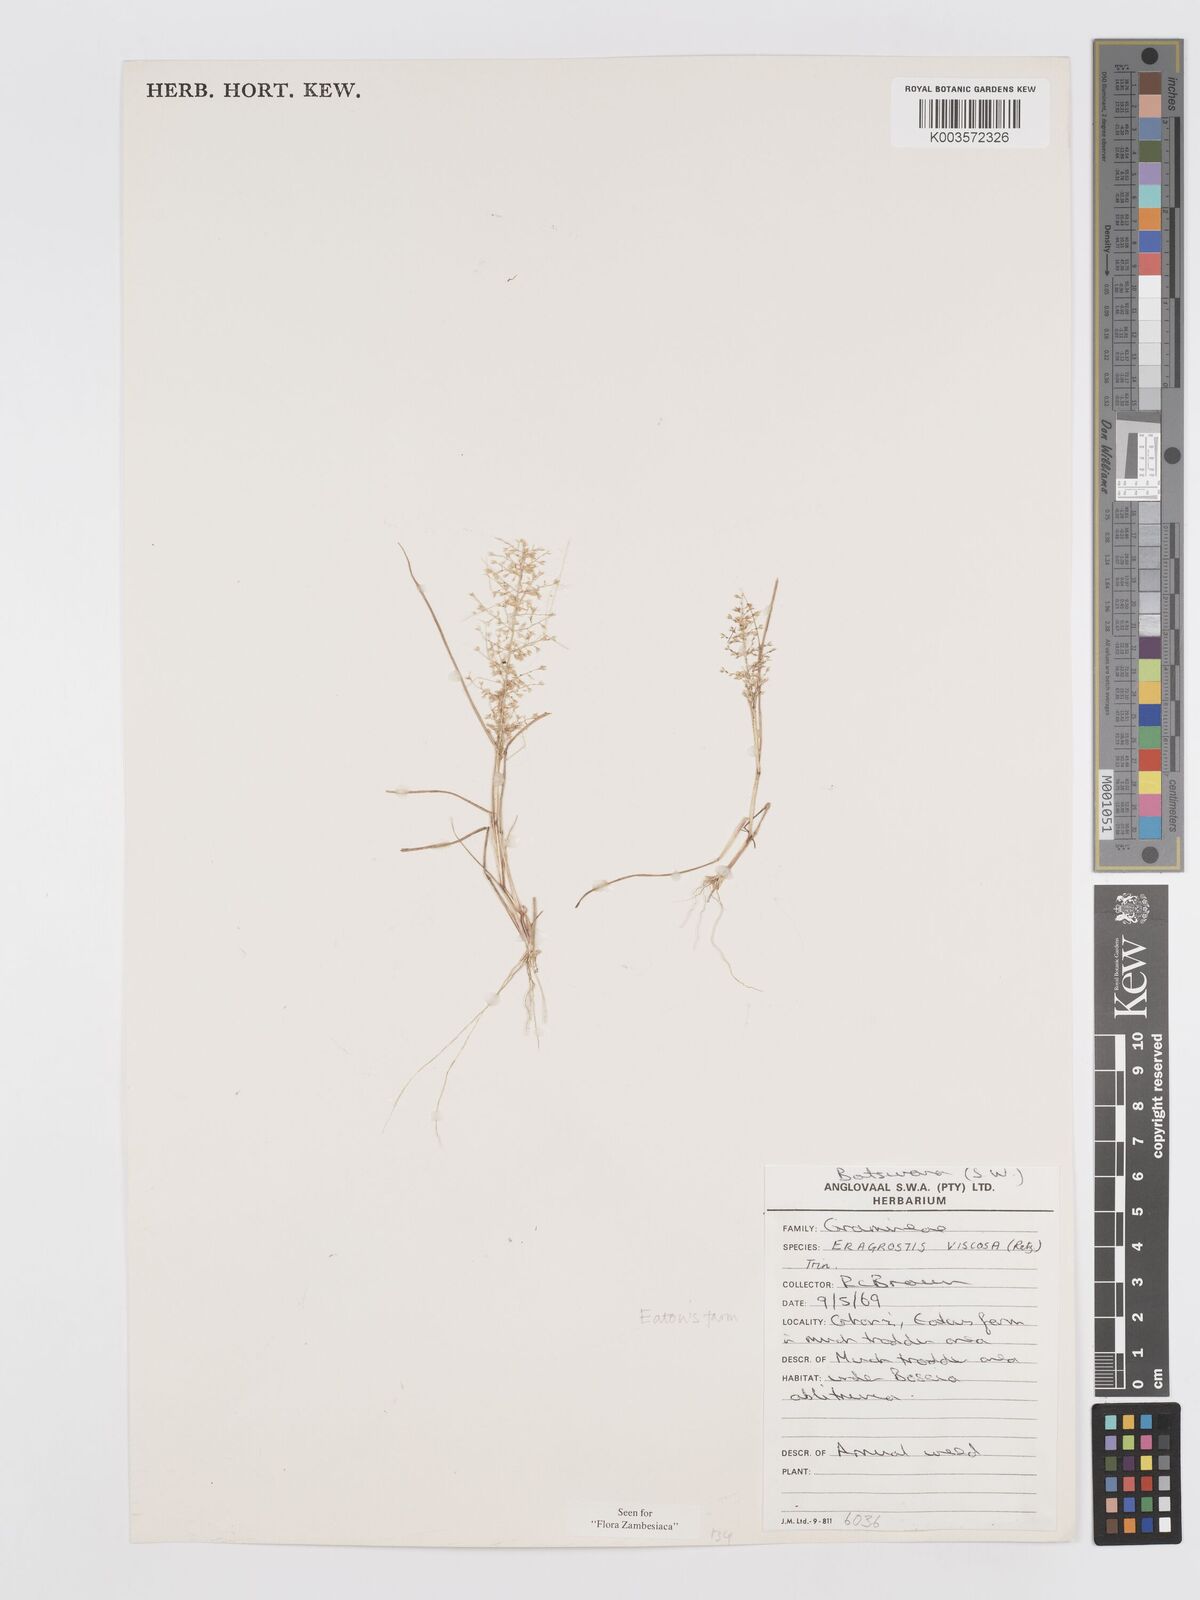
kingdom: Plantae
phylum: Tracheophyta
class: Liliopsida
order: Poales
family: Poaceae
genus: Eragrostis
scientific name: Eragrostis
